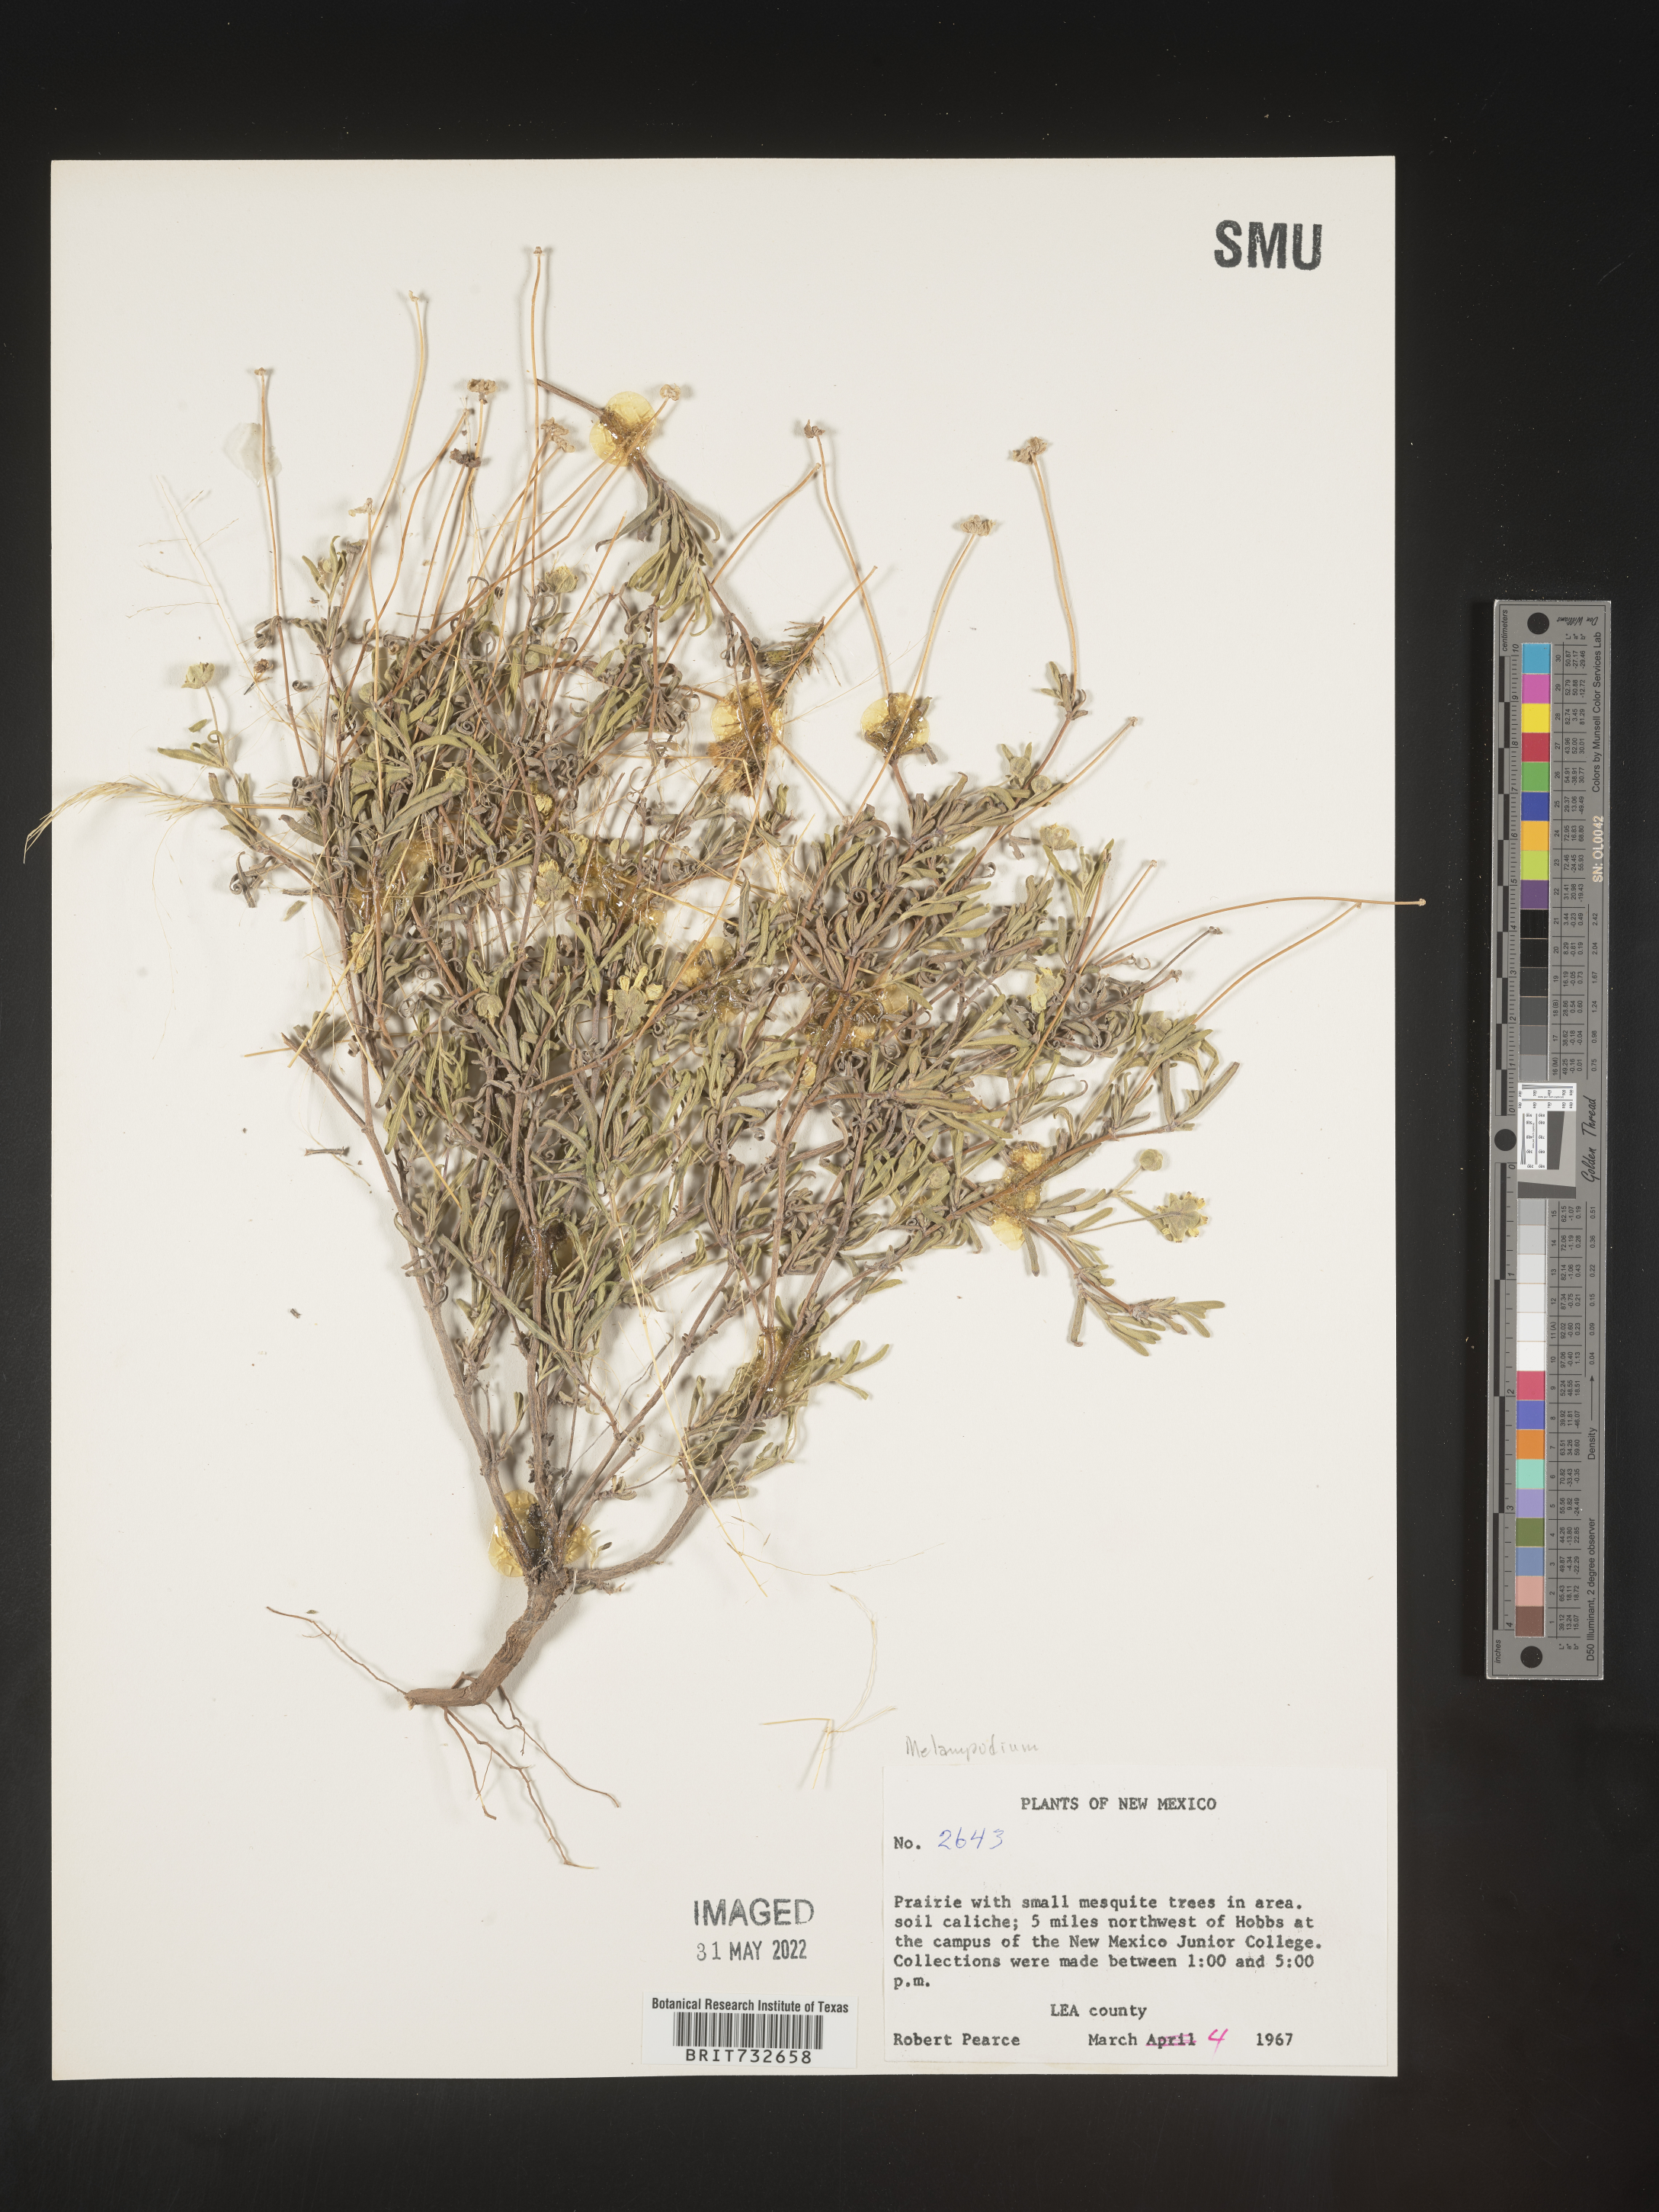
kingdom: Plantae
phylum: Tracheophyta
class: Magnoliopsida
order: Asterales
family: Asteraceae
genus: Melampodium
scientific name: Melampodium
